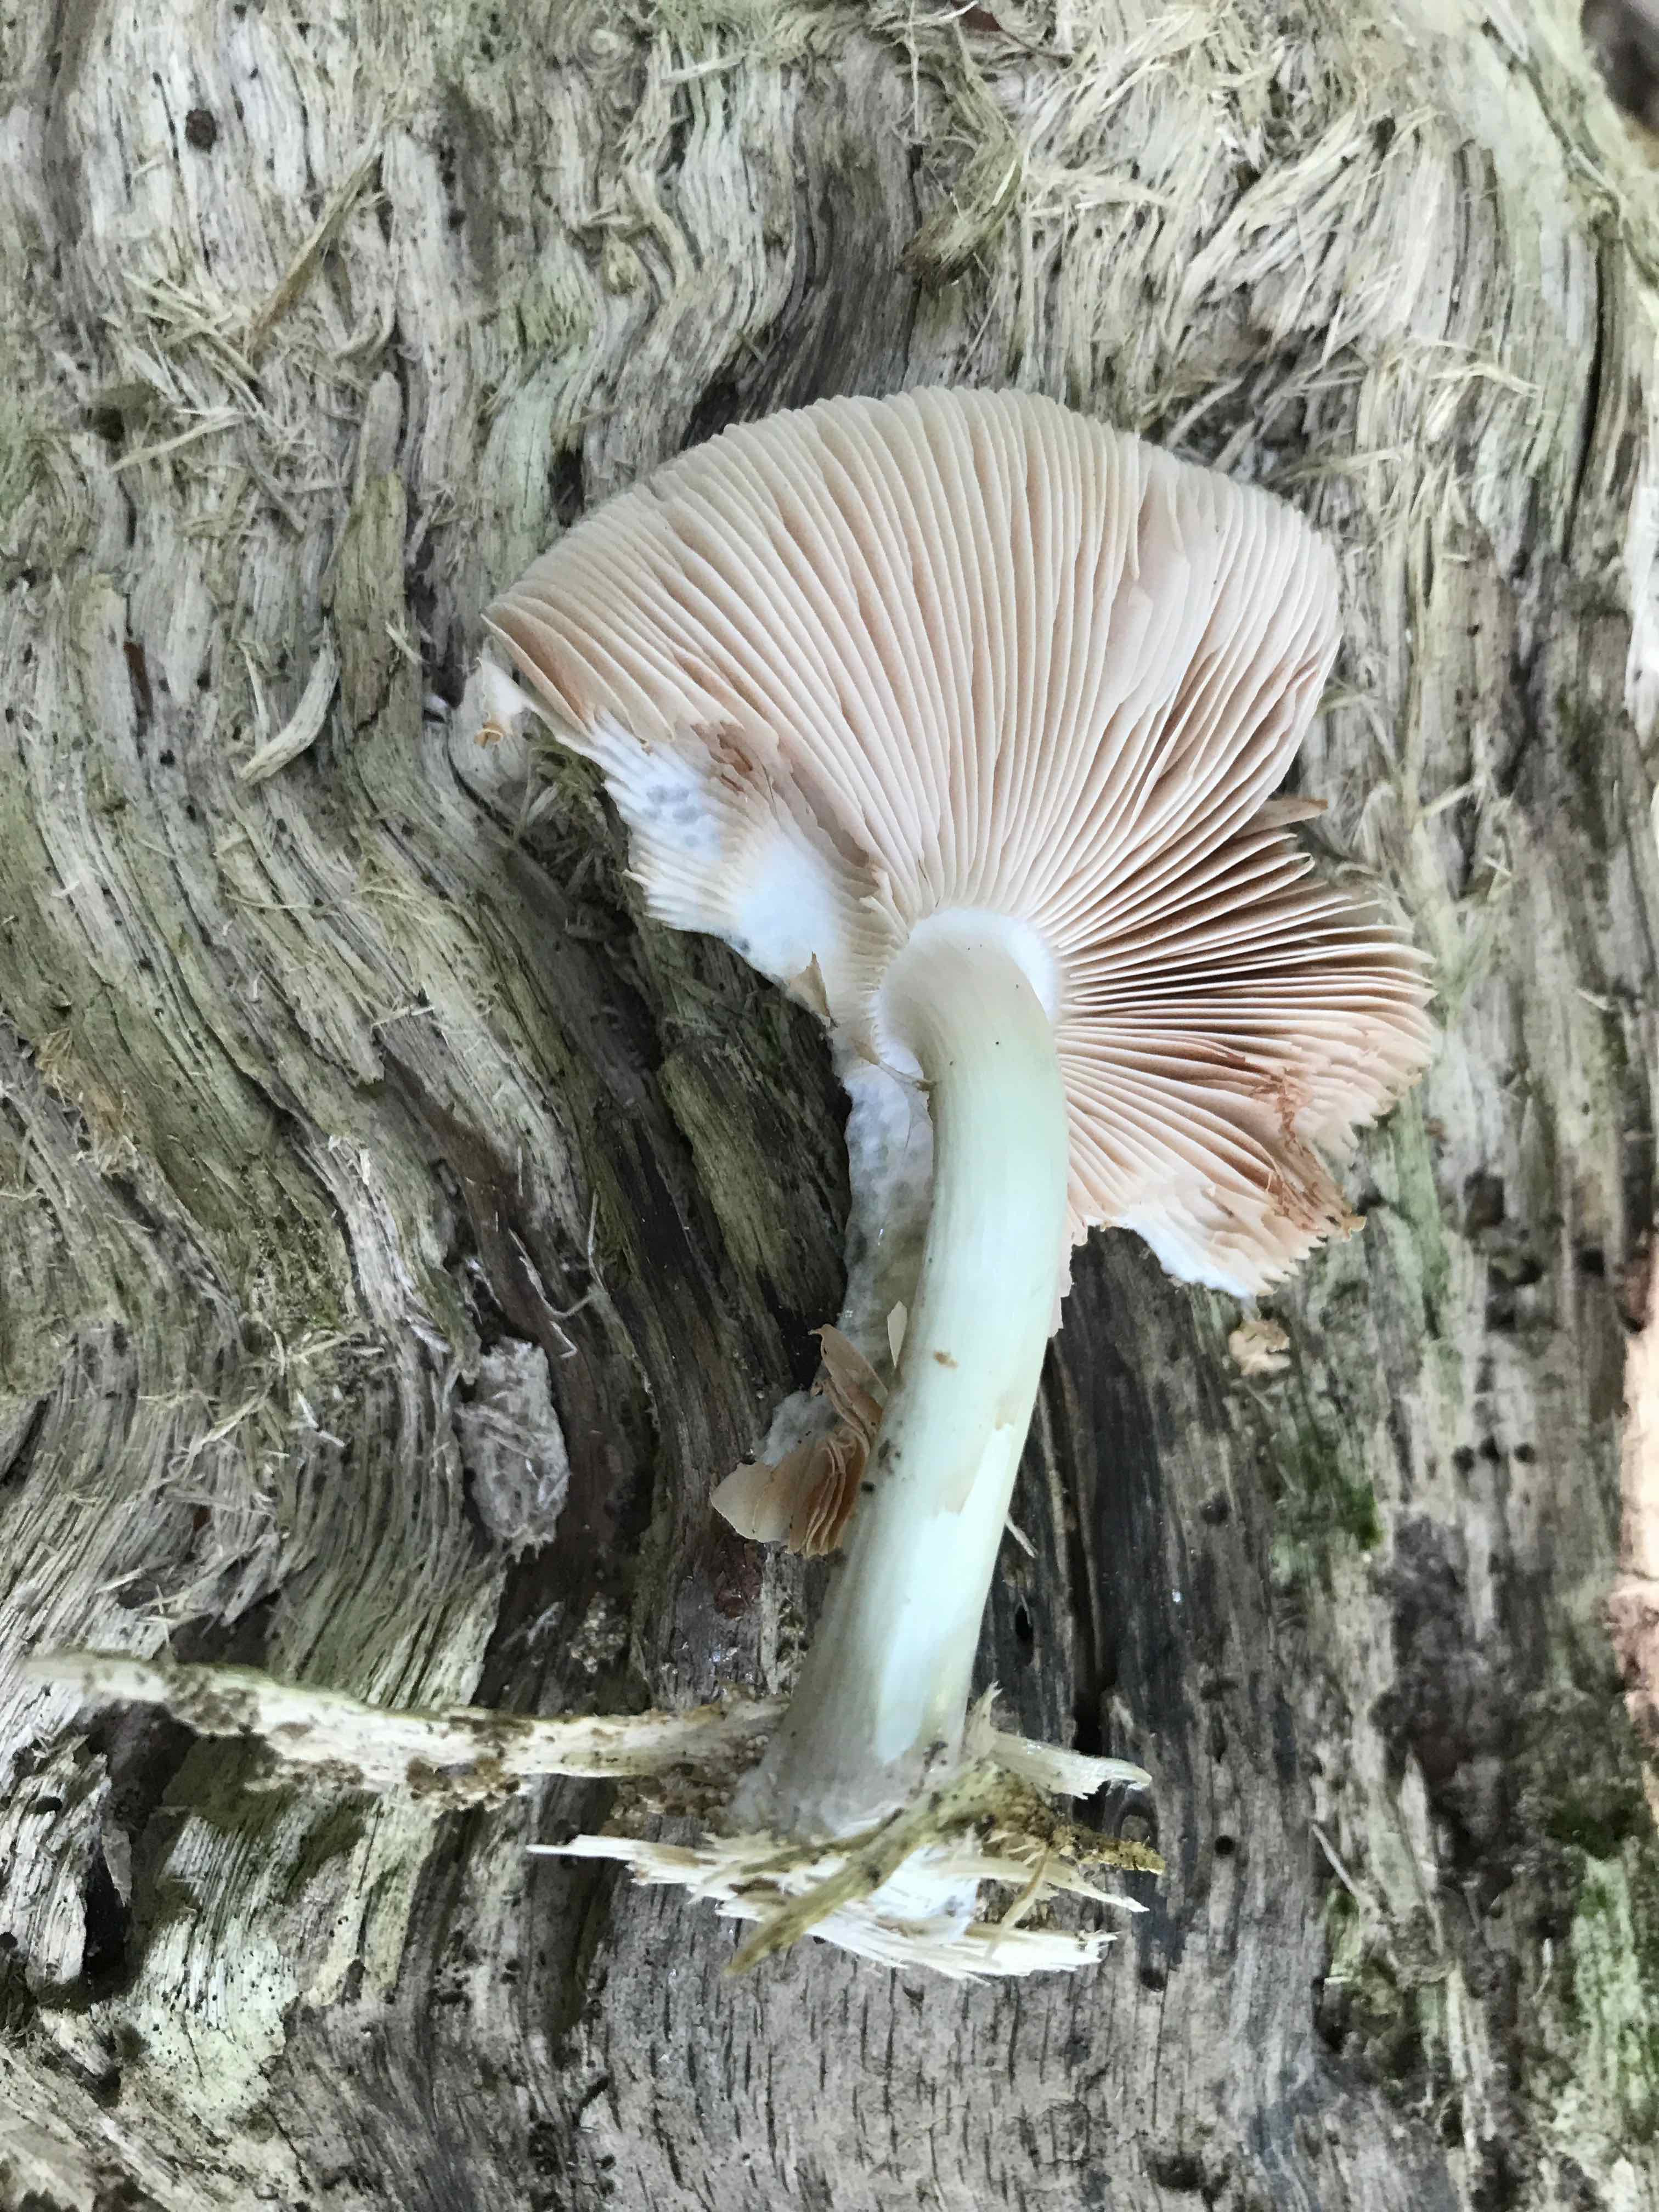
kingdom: Fungi
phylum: Basidiomycota
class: Agaricomycetes
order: Agaricales
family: Pluteaceae
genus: Pluteus
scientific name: Pluteus salicinus
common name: stiv skærmhat
